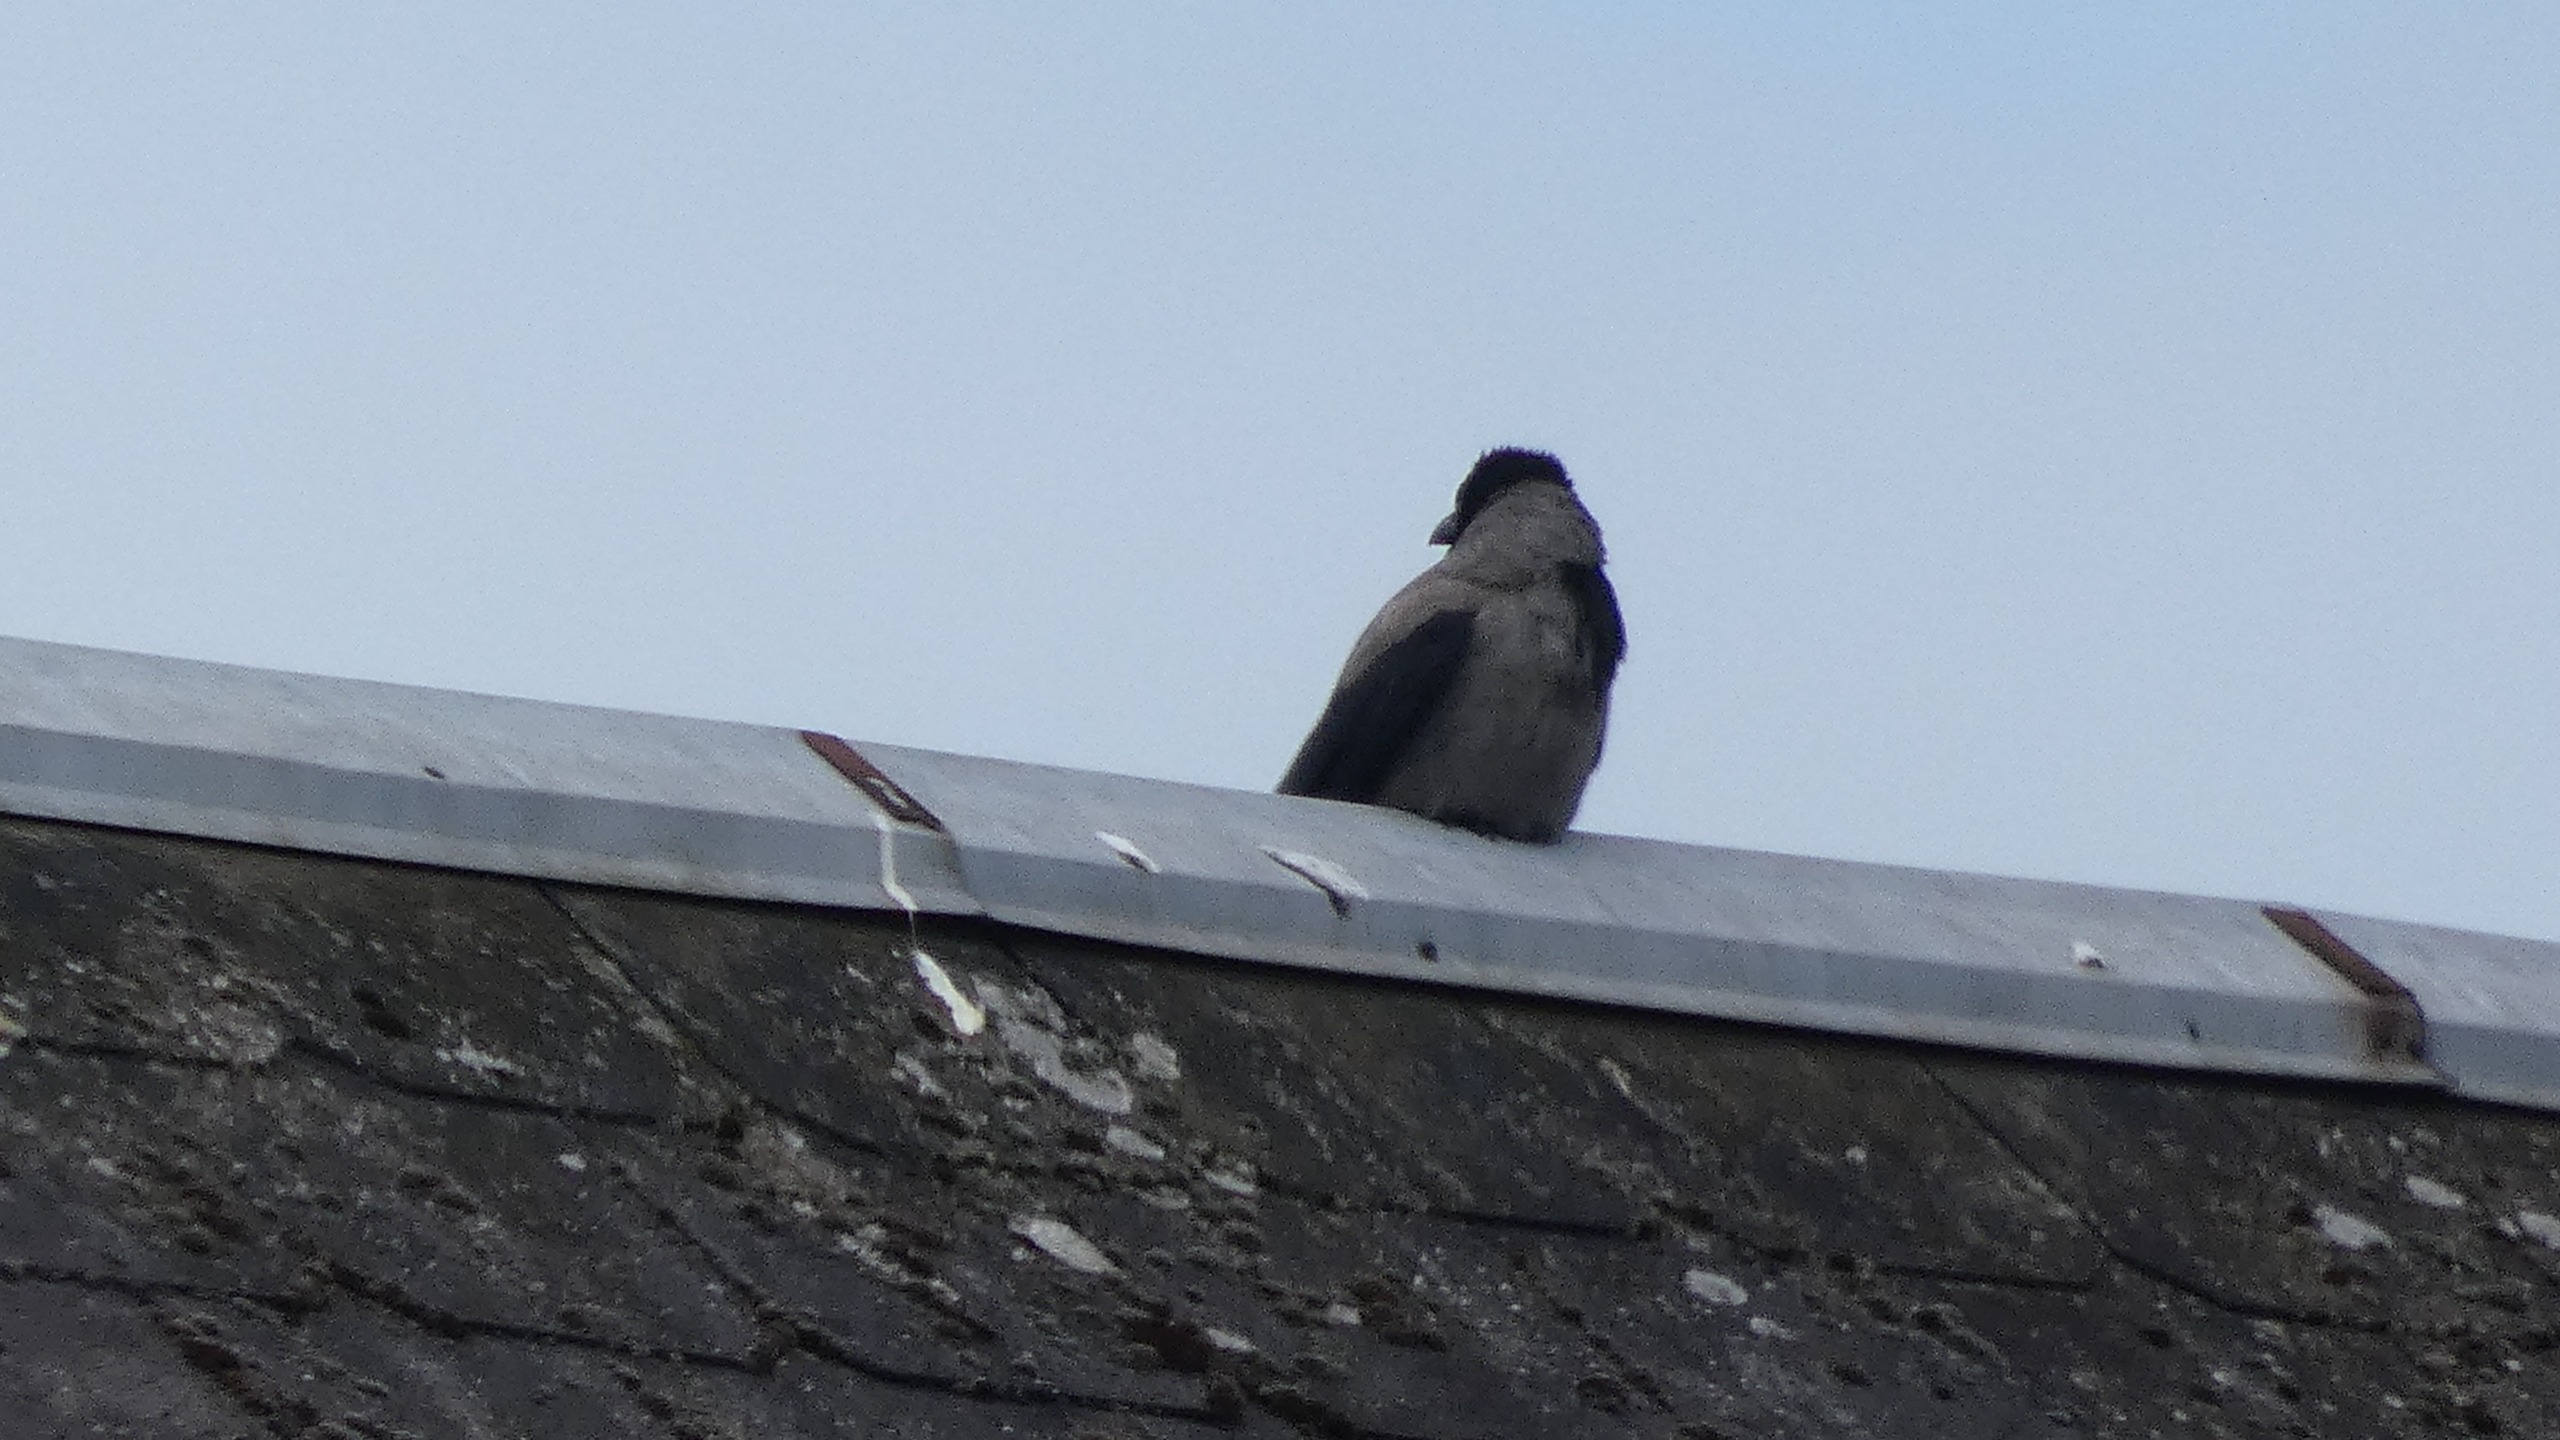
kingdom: Animalia
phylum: Chordata
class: Aves
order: Passeriformes
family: Corvidae
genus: Corvus
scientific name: Corvus cornix
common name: Gråkrage
